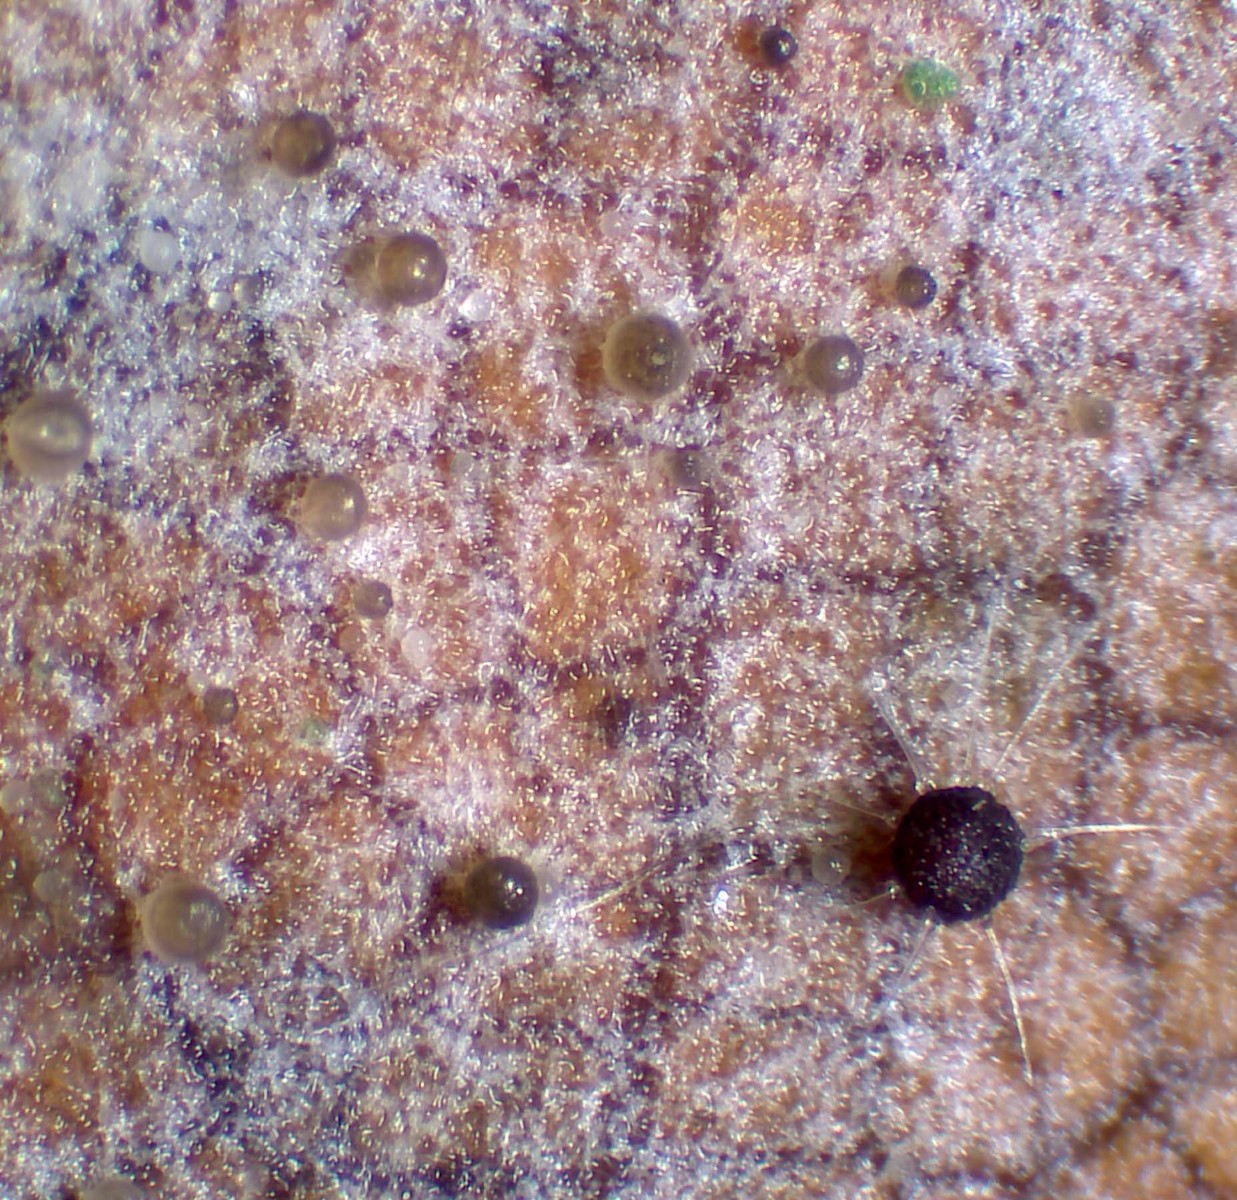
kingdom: Fungi
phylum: Ascomycota
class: Leotiomycetes
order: Helotiales
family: Erysiphaceae
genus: Phyllactinia
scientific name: Phyllactinia orbicularis
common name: bøge-meldug
